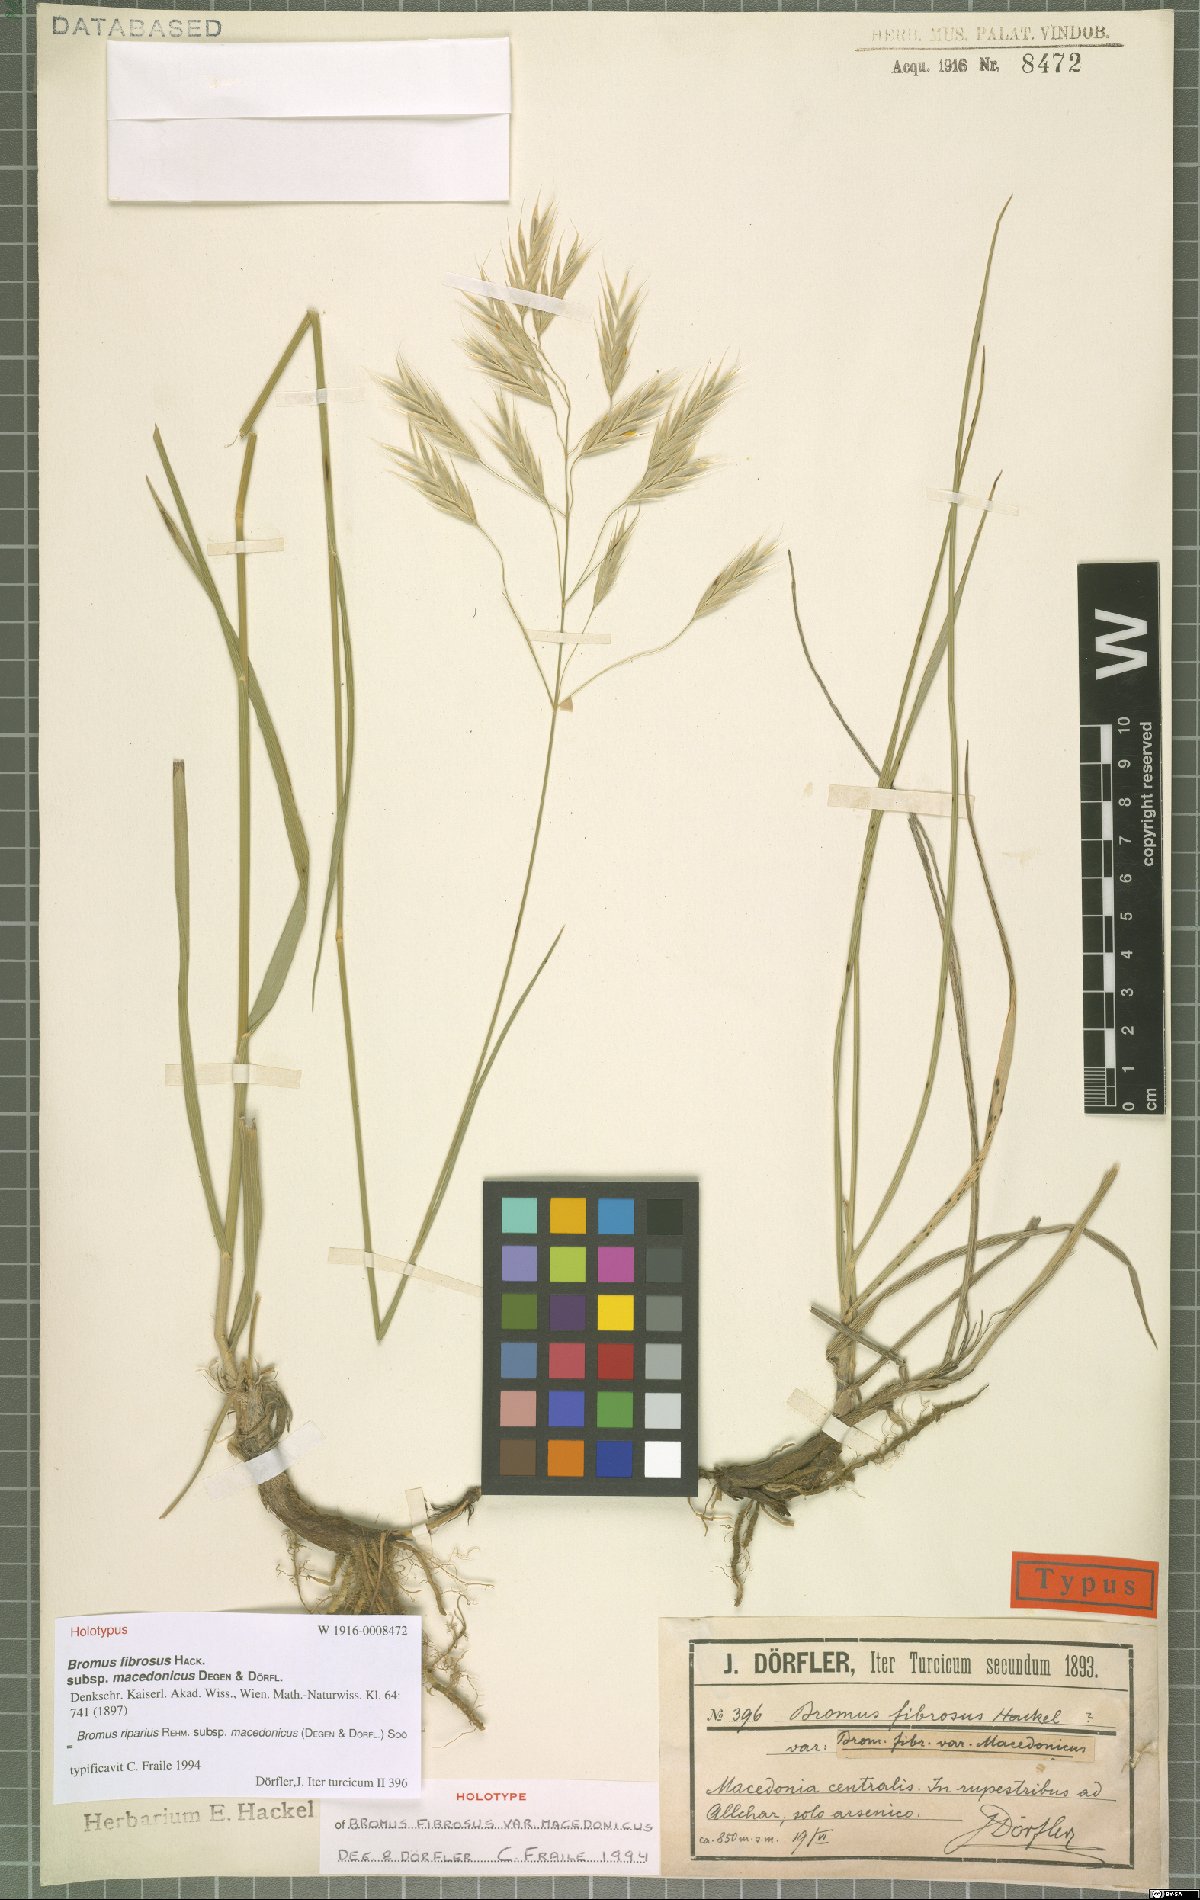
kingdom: Plantae
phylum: Tracheophyta
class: Liliopsida
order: Poales
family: Poaceae
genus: Bromus
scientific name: Bromus riparius
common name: Meadow brome
